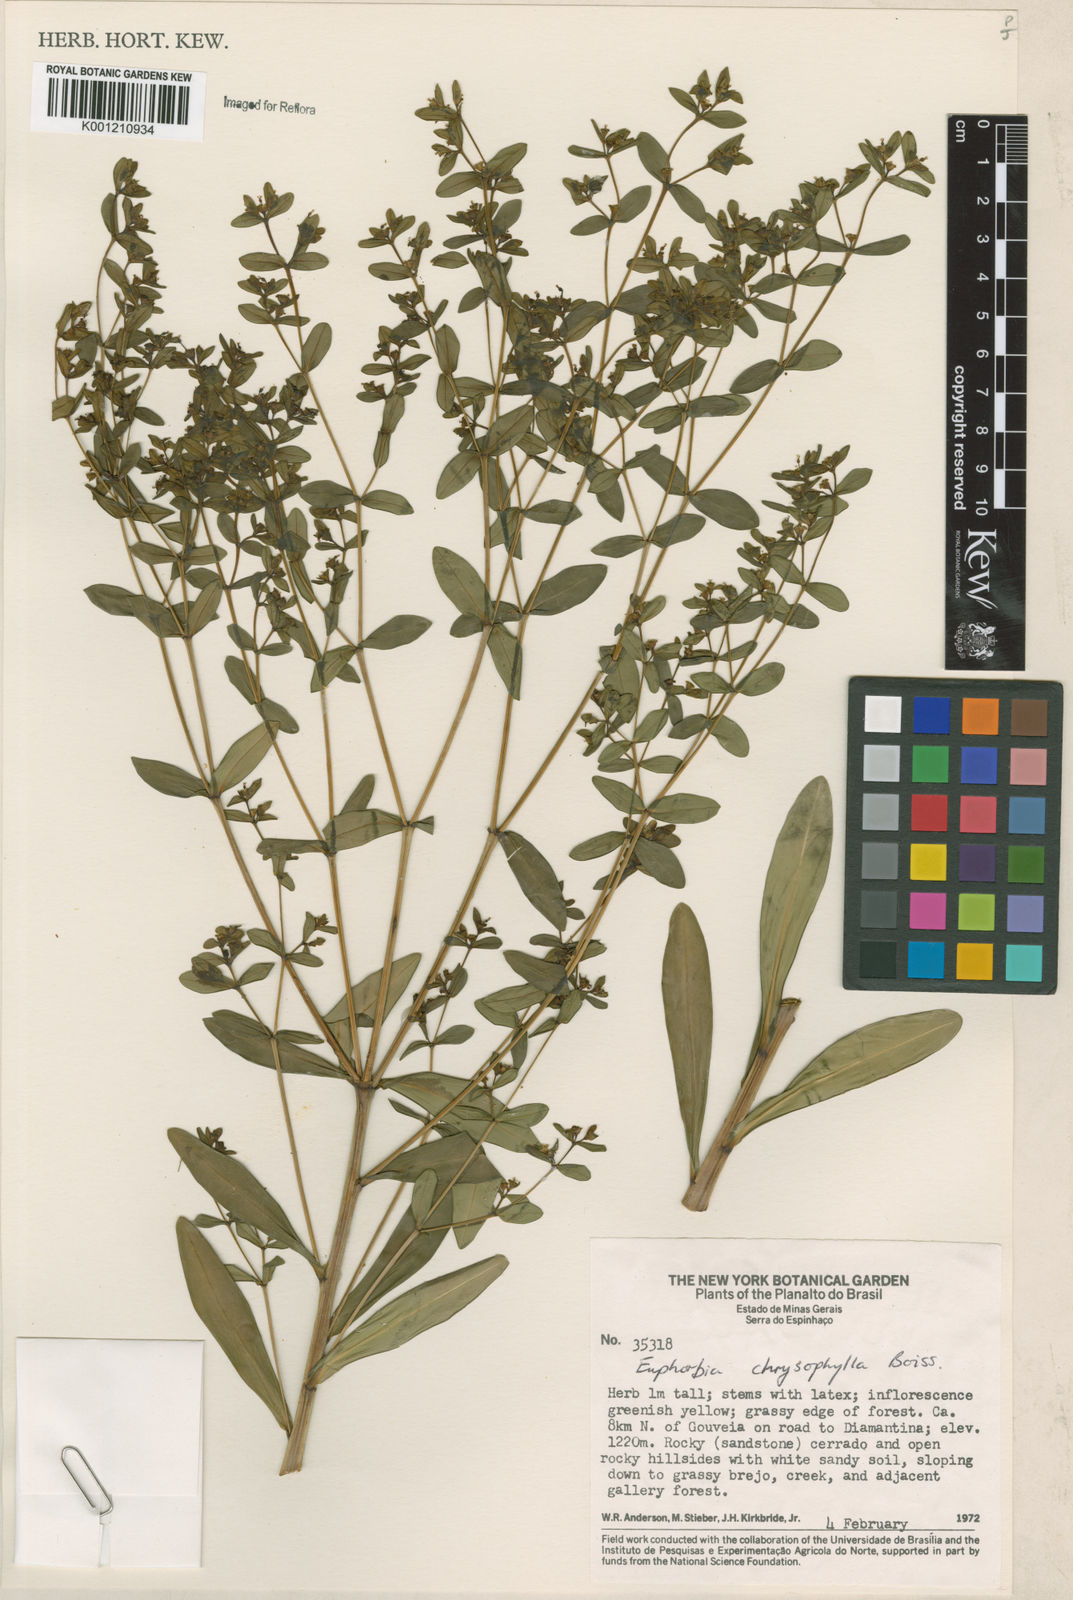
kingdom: Plantae
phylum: Tracheophyta
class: Magnoliopsida
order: Malpighiales
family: Euphorbiaceae
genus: Euphorbia
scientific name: Euphorbia chrysophylla
